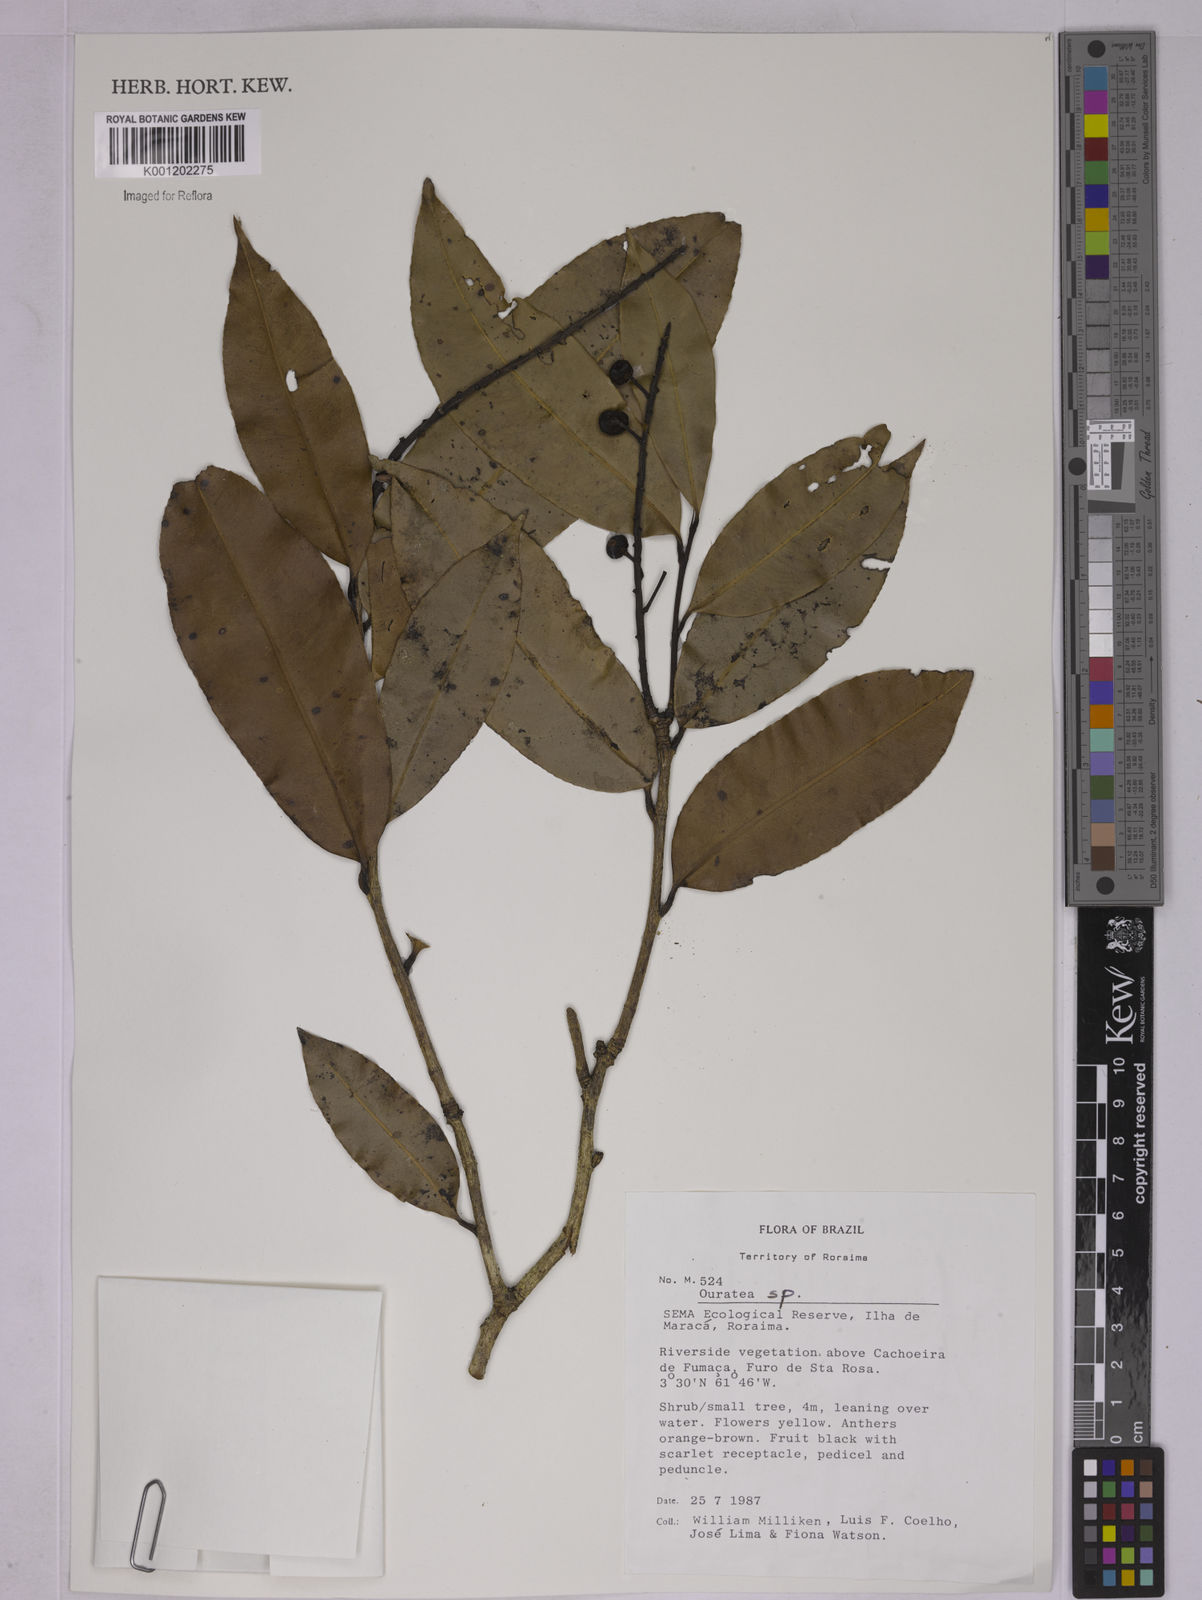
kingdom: Plantae
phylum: Tracheophyta
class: Magnoliopsida
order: Malpighiales
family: Ochnaceae
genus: Ouratea
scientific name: Ouratea
